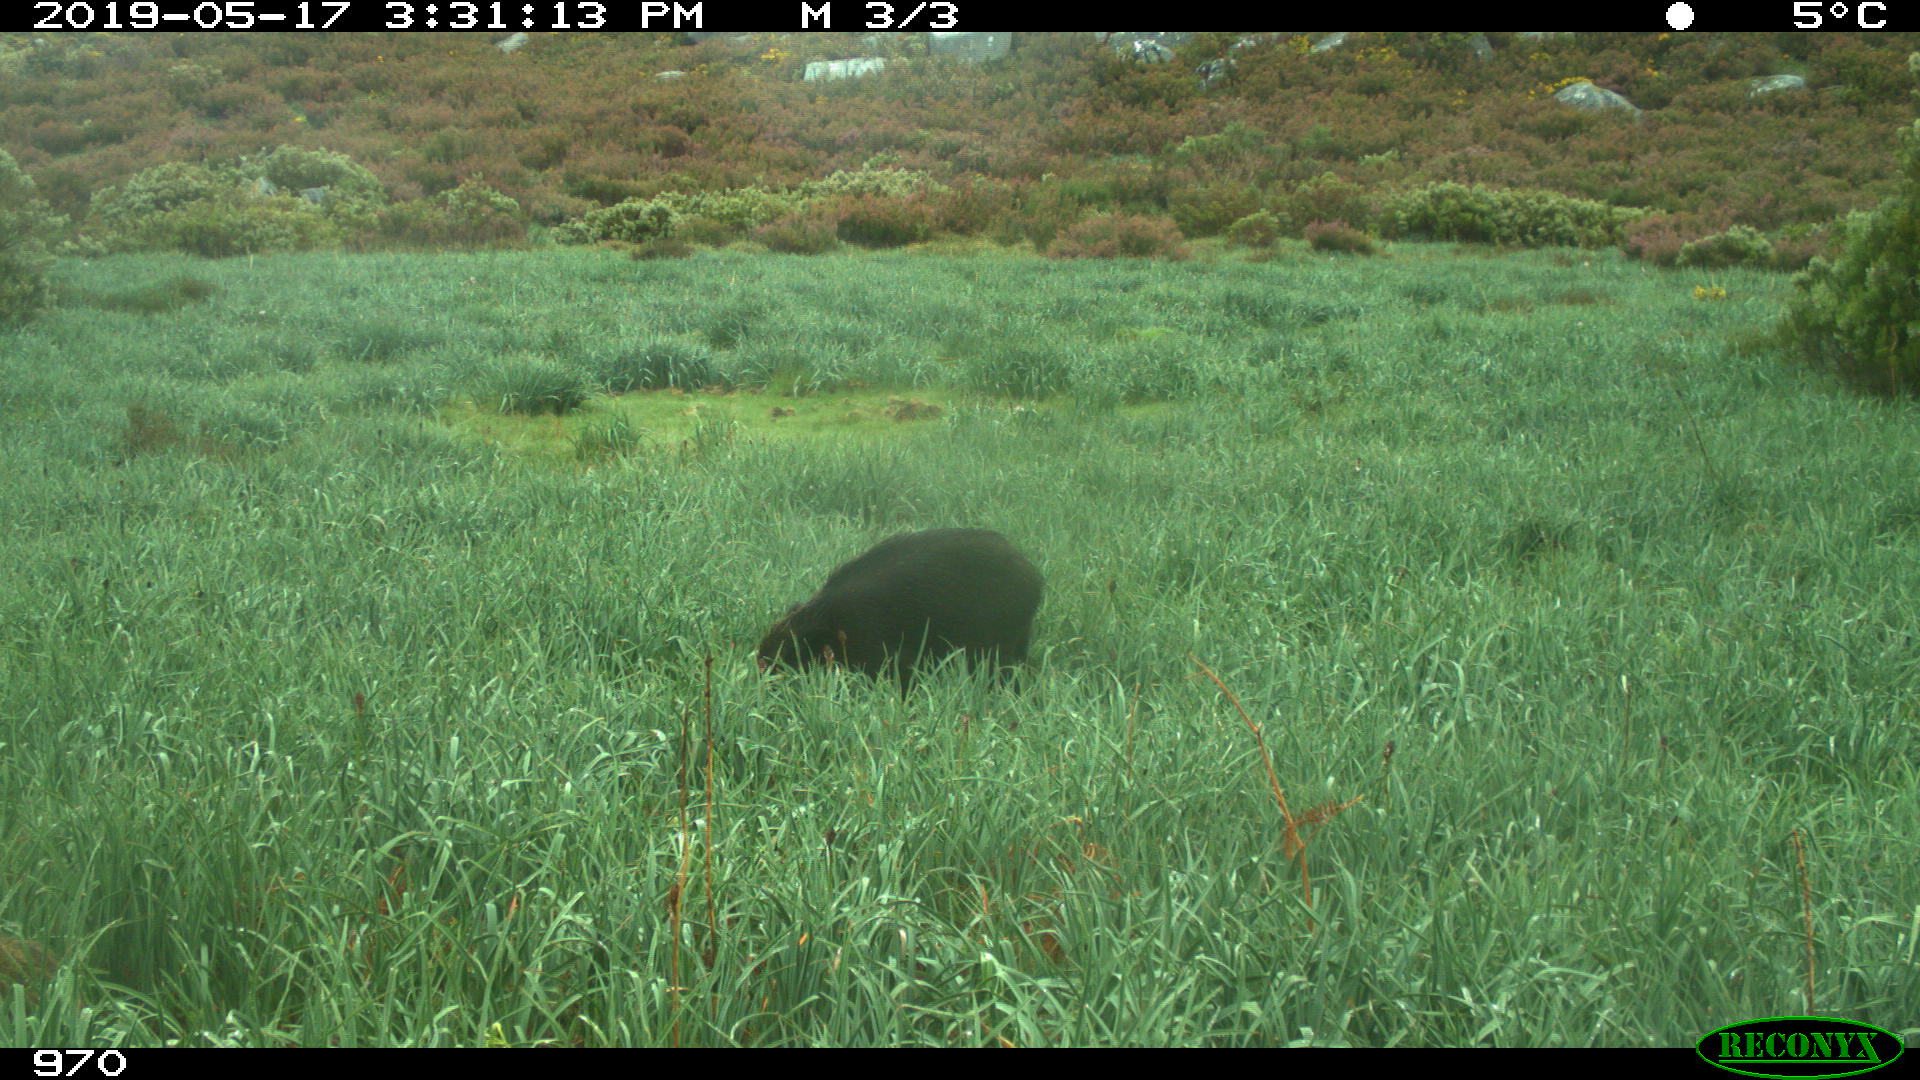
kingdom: Animalia
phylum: Chordata
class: Mammalia
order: Artiodactyla
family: Suidae
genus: Sus
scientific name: Sus scrofa
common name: Wild boar
